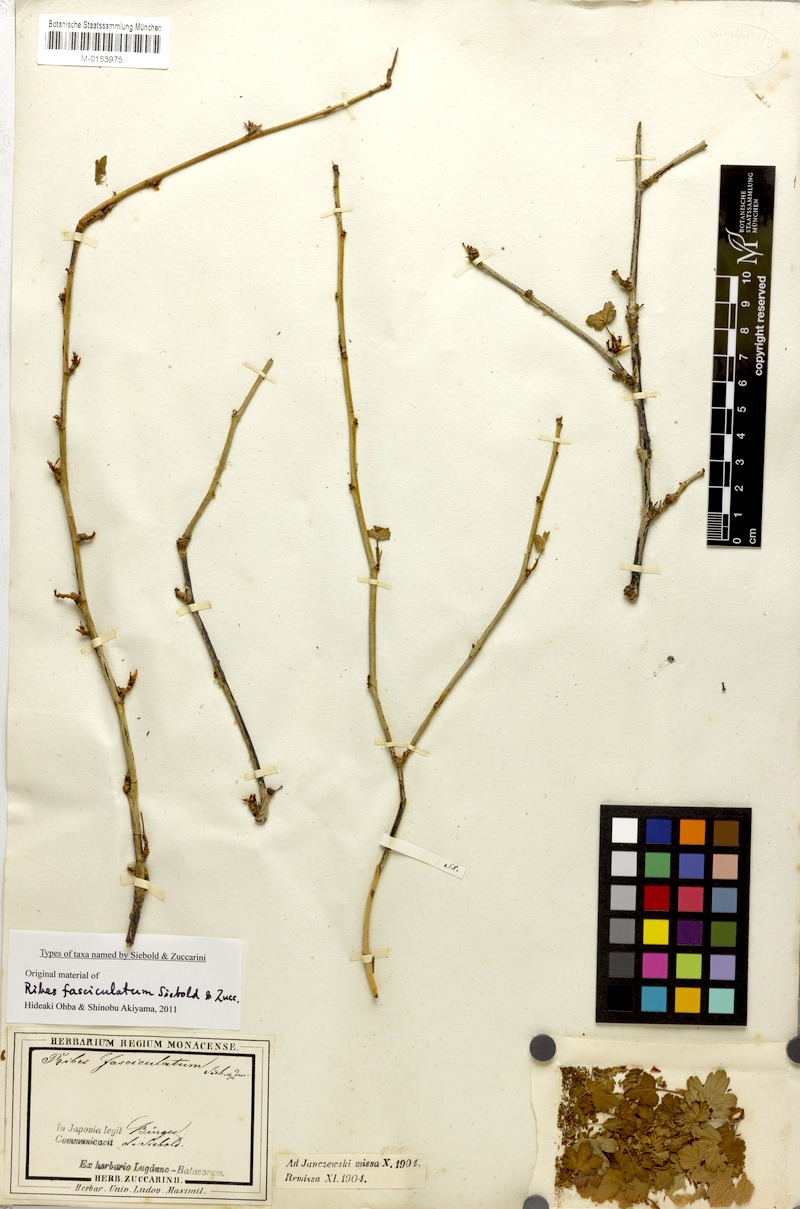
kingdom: Plantae
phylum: Tracheophyta
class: Magnoliopsida
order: Saxifragales
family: Grossulariaceae
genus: Ribes
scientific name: Ribes fasciculatum
